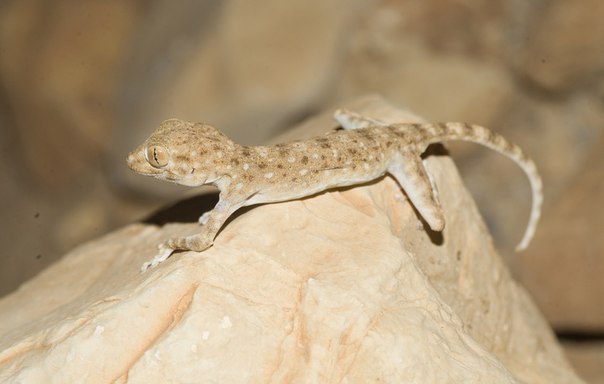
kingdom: Animalia
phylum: Chordata
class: Squamata
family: Phyllodactylidae
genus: Ptyodactylus
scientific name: Ptyodactylus guttatus
